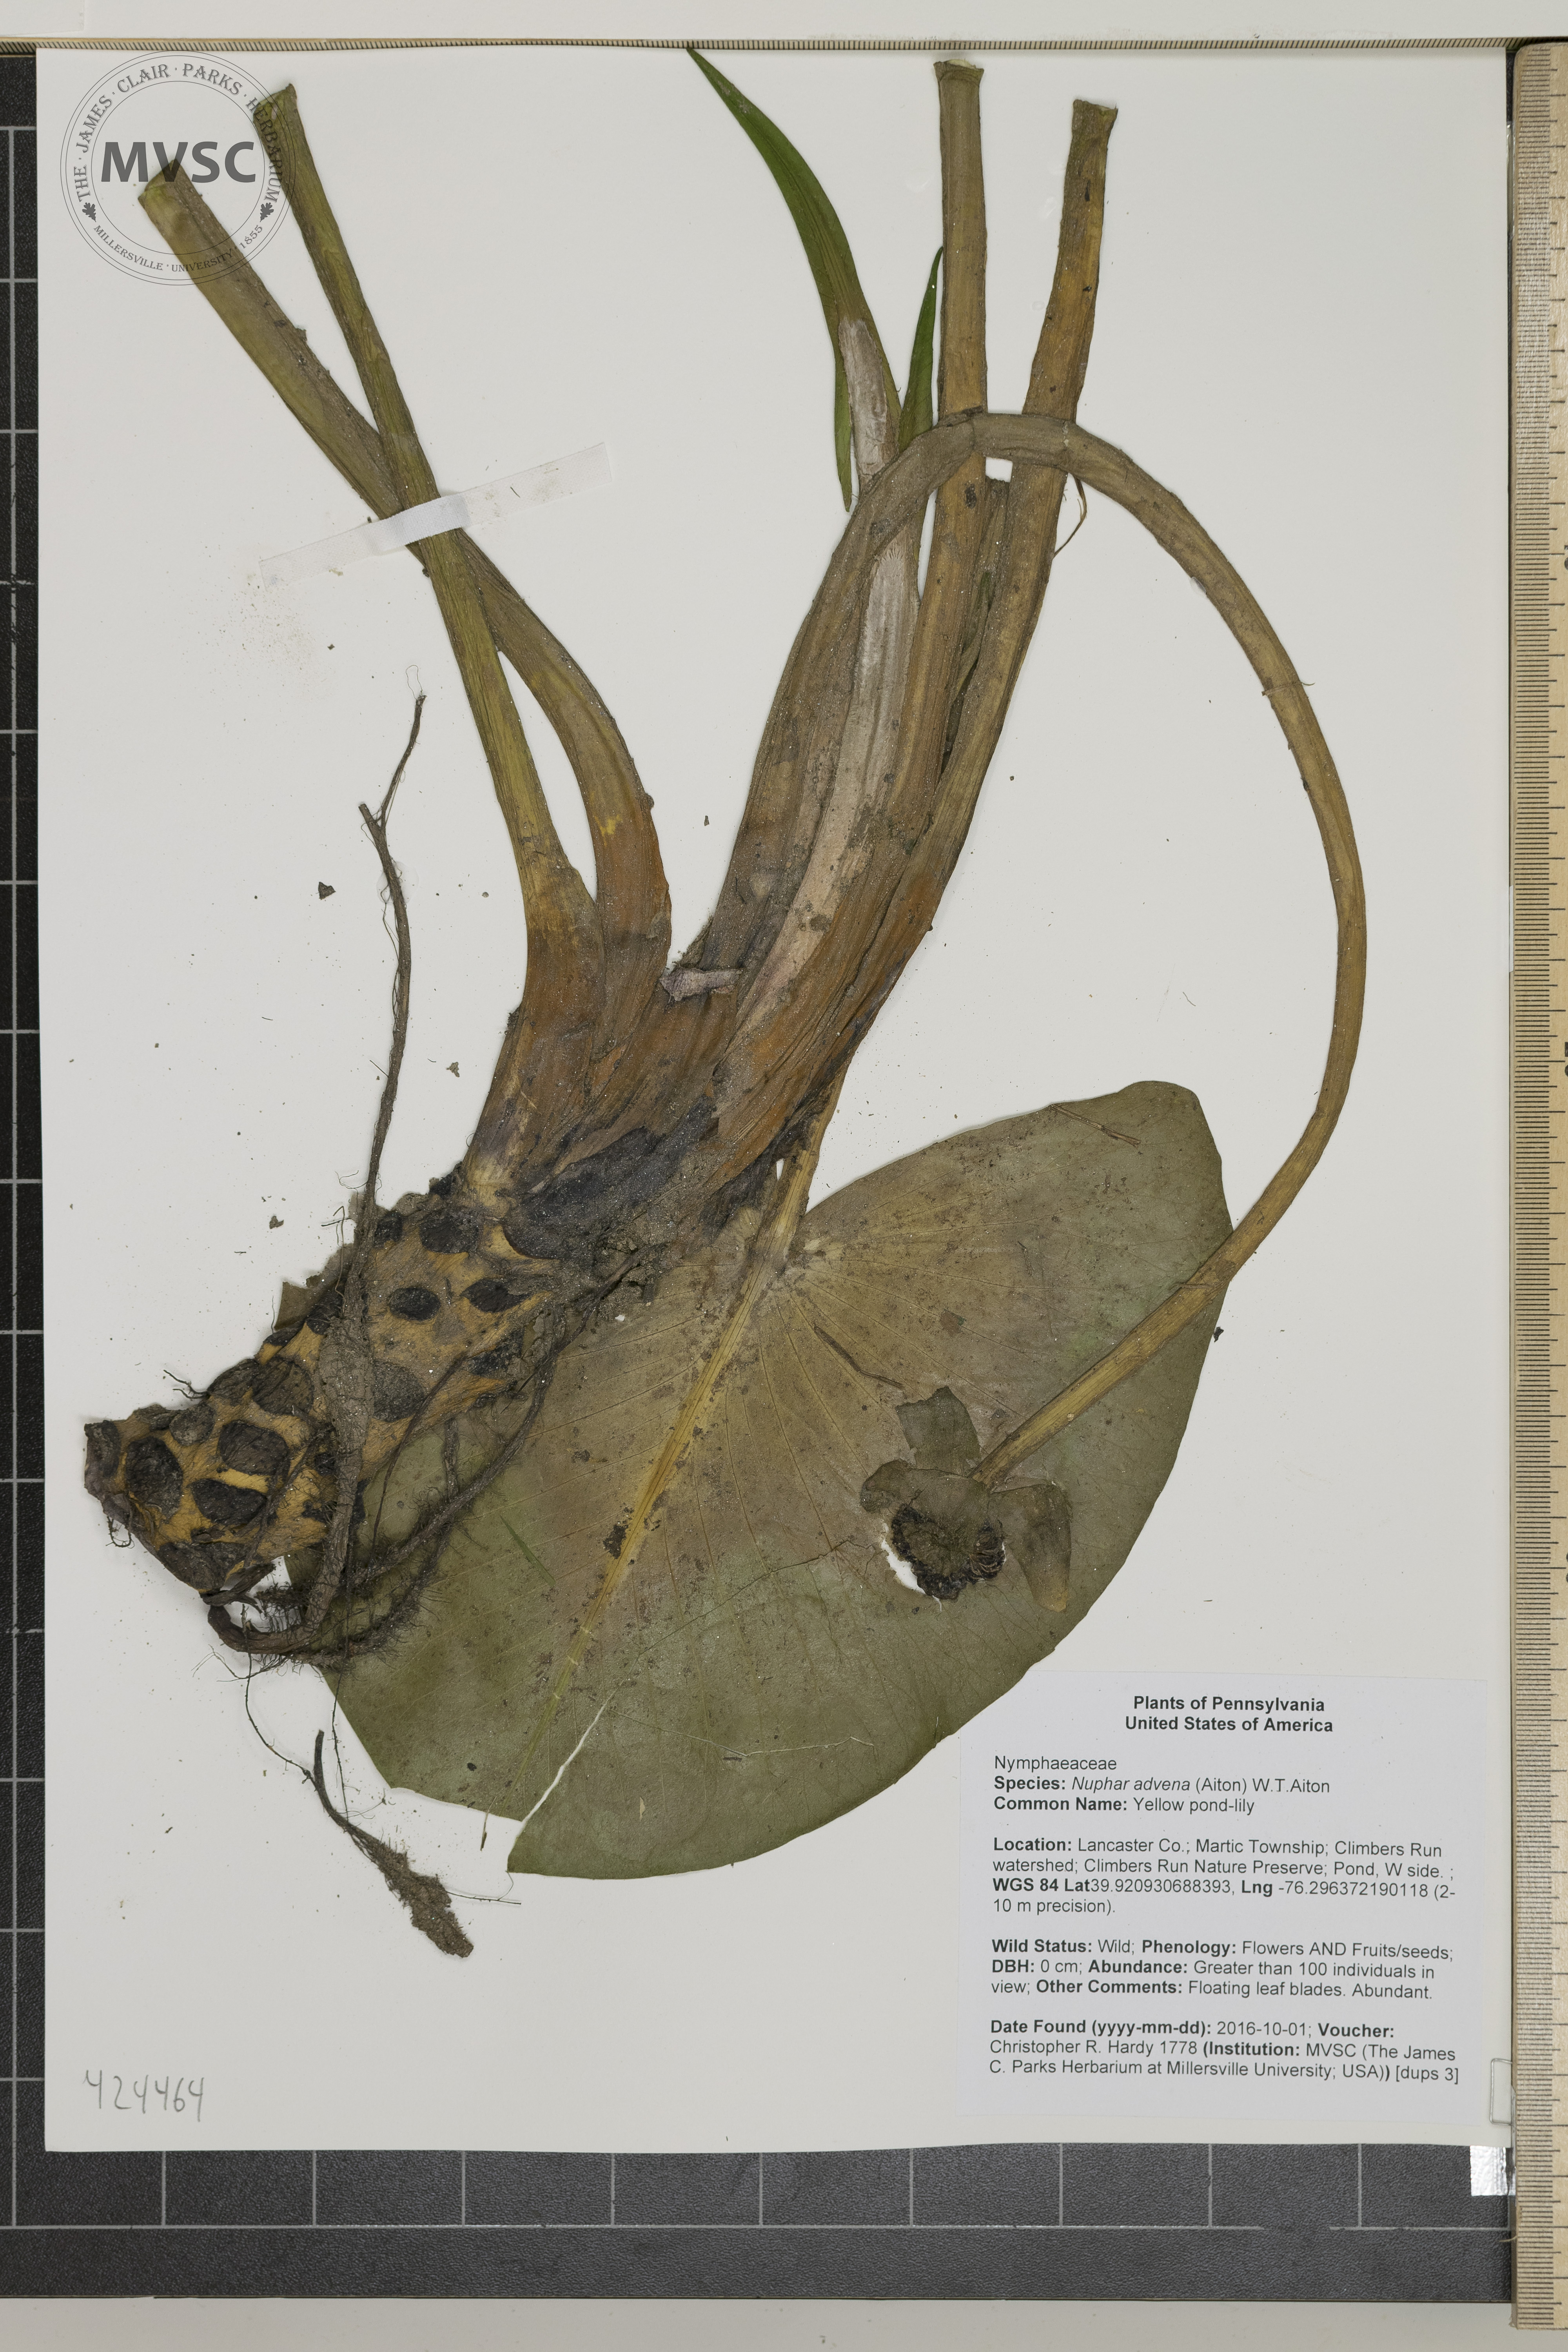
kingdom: Plantae
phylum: Tracheophyta
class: Magnoliopsida
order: Nymphaeales
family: Nymphaeaceae
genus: Nuphar
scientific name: Nuphar advena
